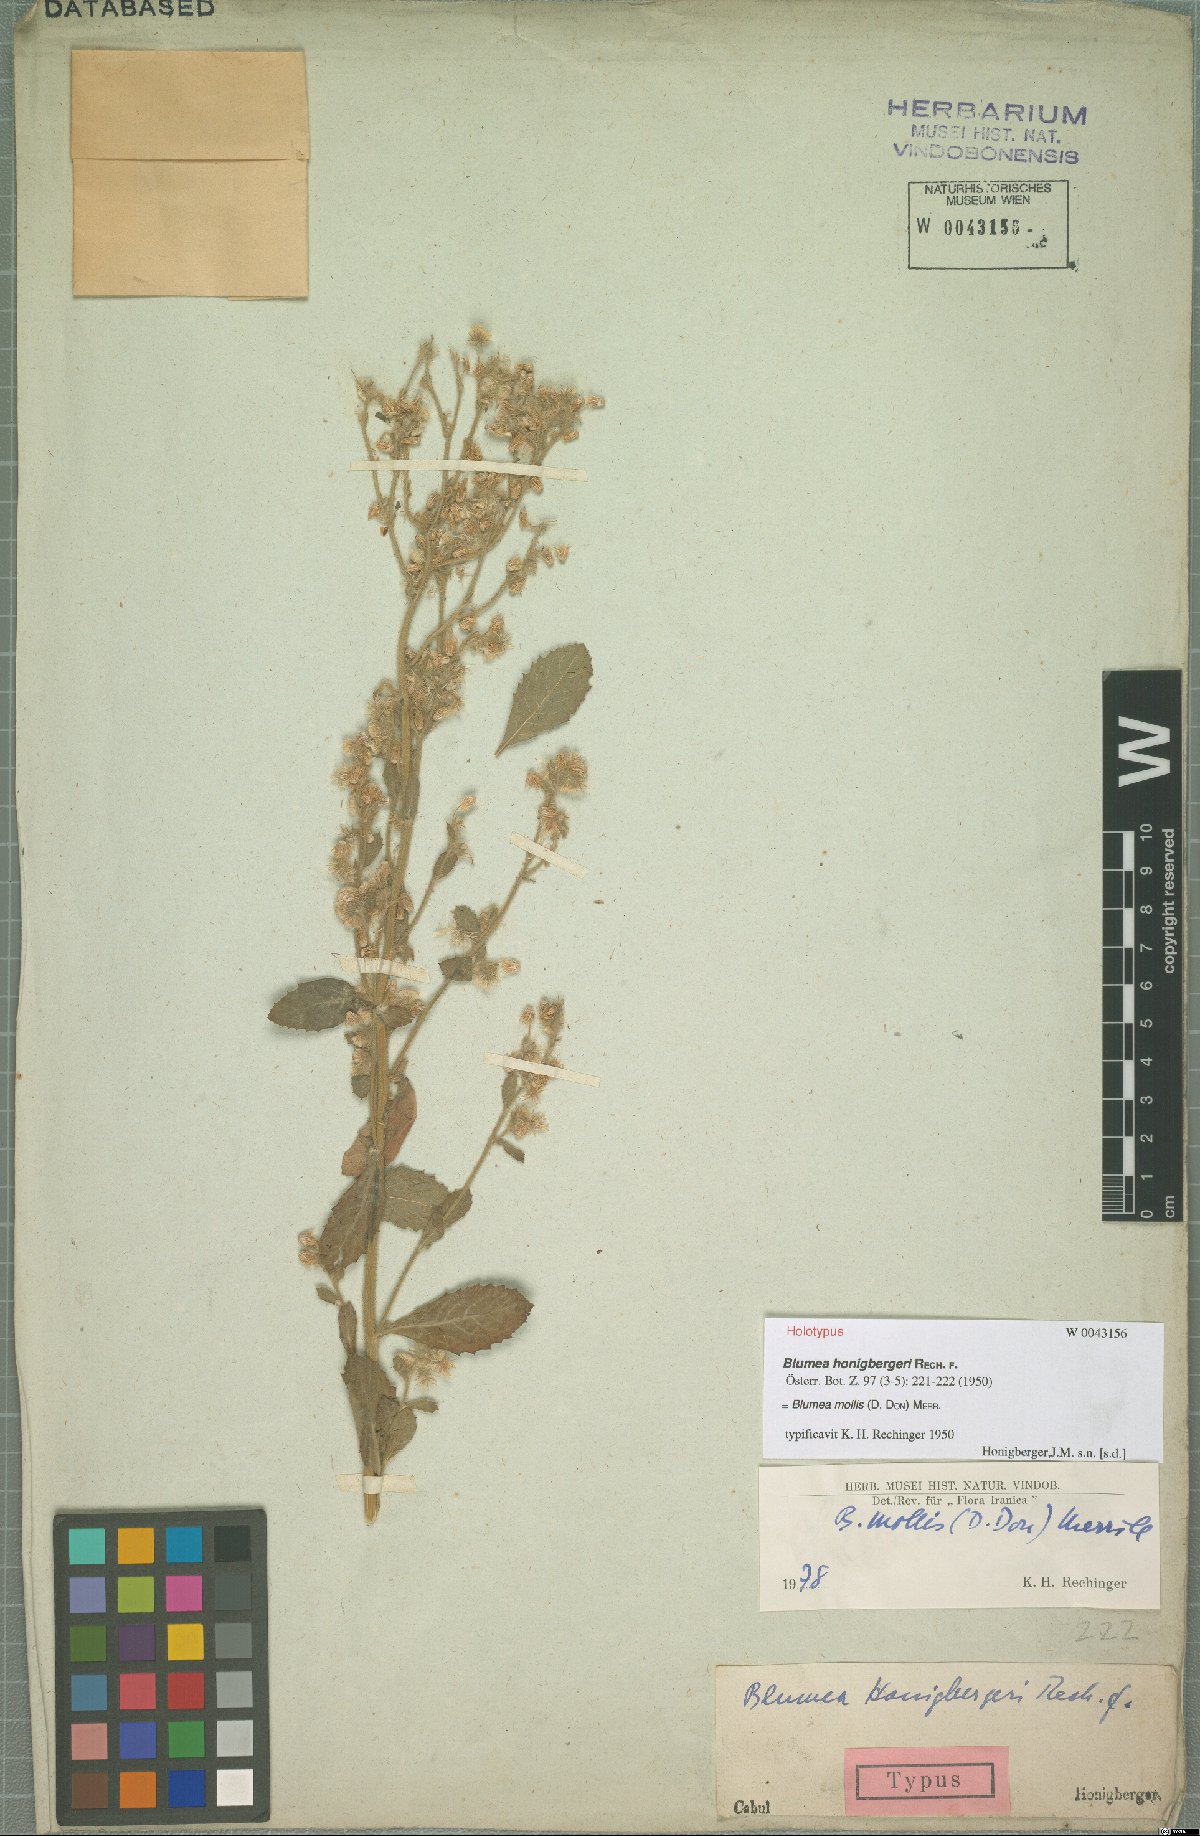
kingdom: Plantae
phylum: Tracheophyta
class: Magnoliopsida
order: Asterales
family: Asteraceae
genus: Blumea
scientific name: Blumea axillaris
